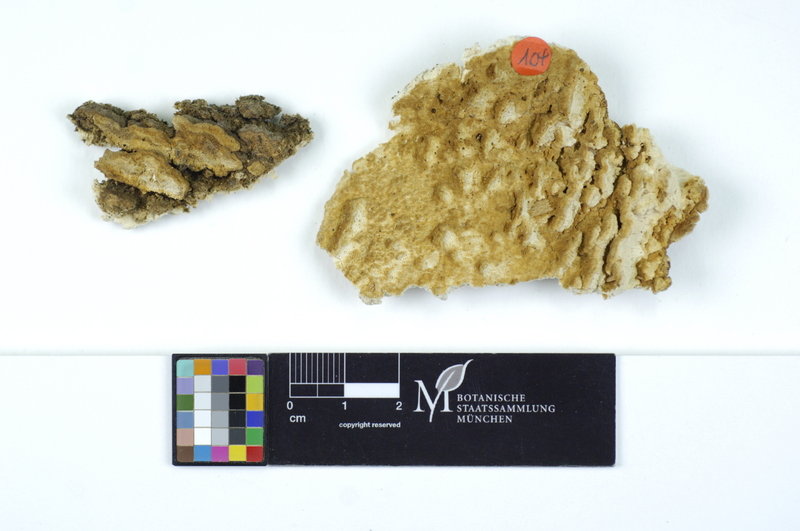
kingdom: Fungi
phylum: Basidiomycota
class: Agaricomycetes
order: Polyporales
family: Fomitopsidaceae
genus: Neoantrodia
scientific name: Neoantrodia serialis
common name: Serried porecrust
